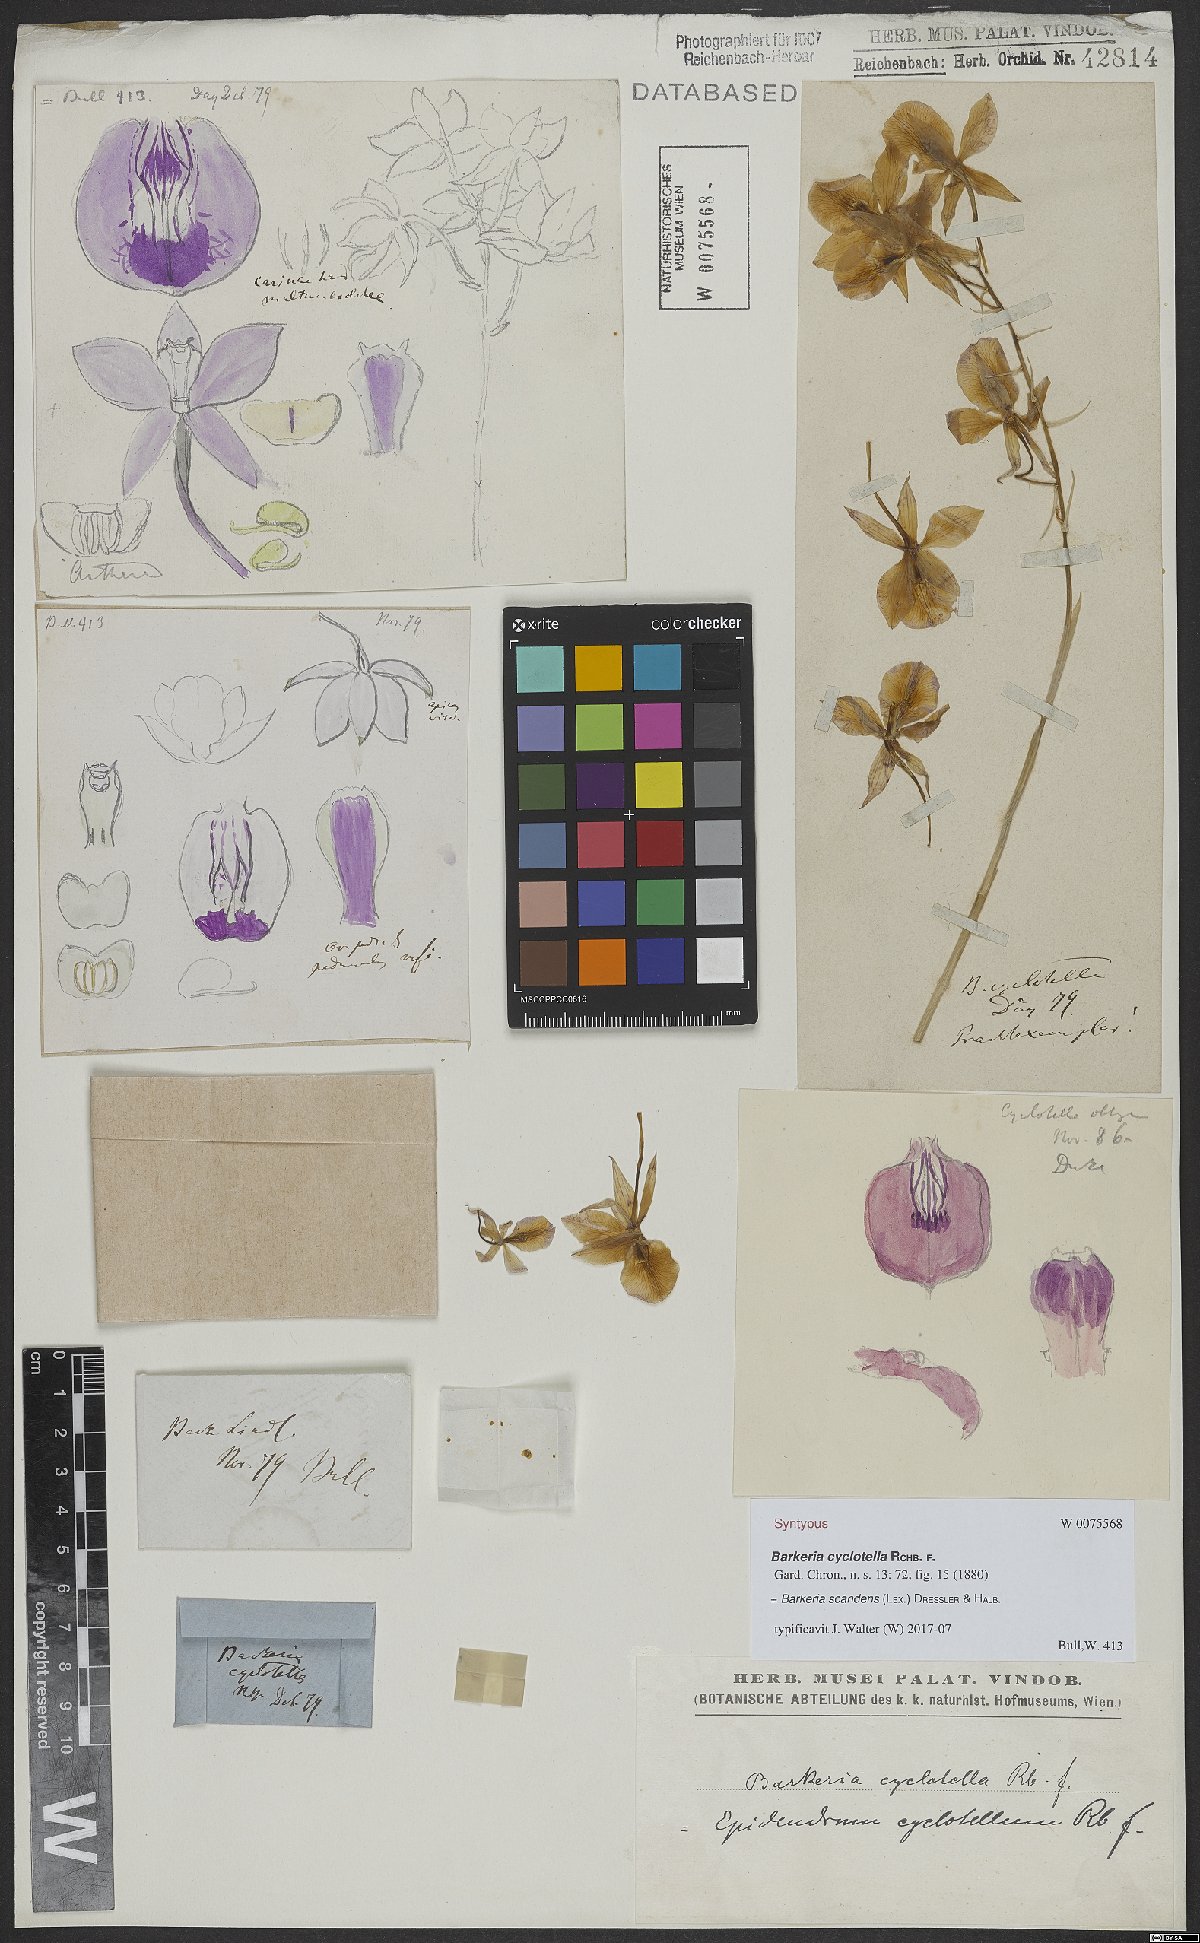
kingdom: Plantae
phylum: Tracheophyta
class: Liliopsida
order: Asparagales
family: Orchidaceae
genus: Barkeria
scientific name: Barkeria scandens
